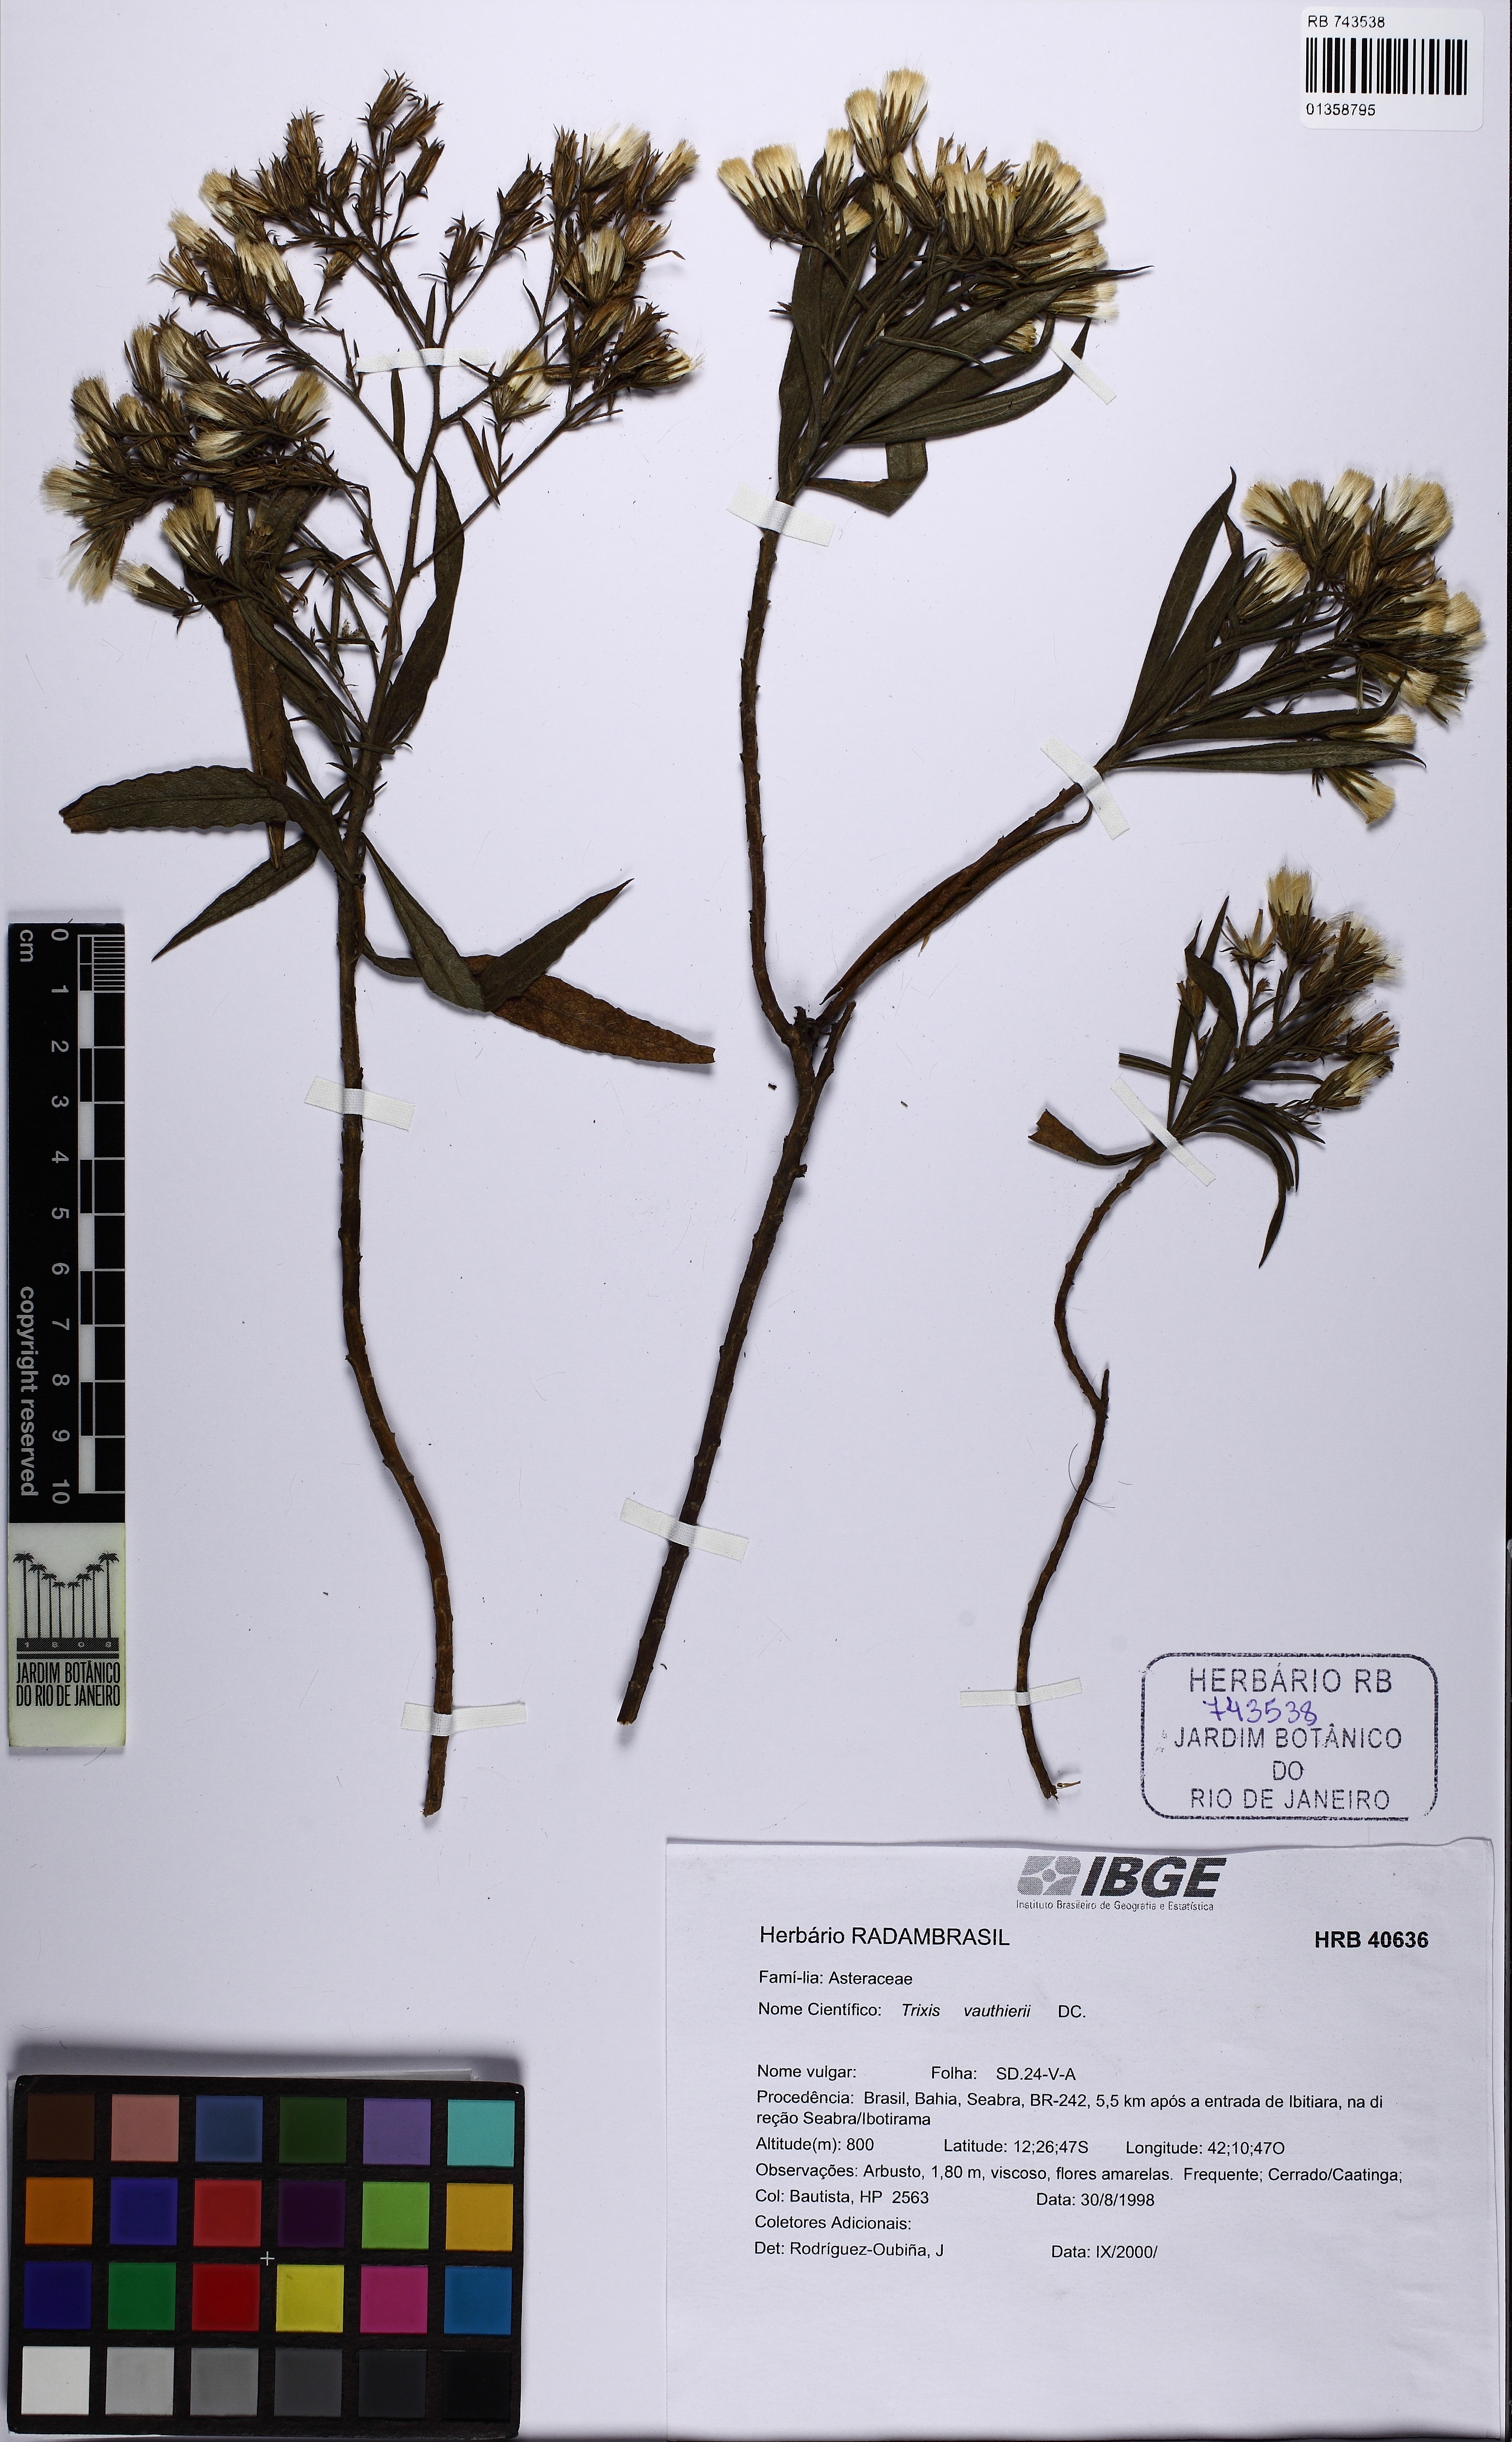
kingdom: Plantae
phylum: Tracheophyta
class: Magnoliopsida
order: Asterales
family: Asteraceae
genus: Trixis
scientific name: Trixis vauthieri
